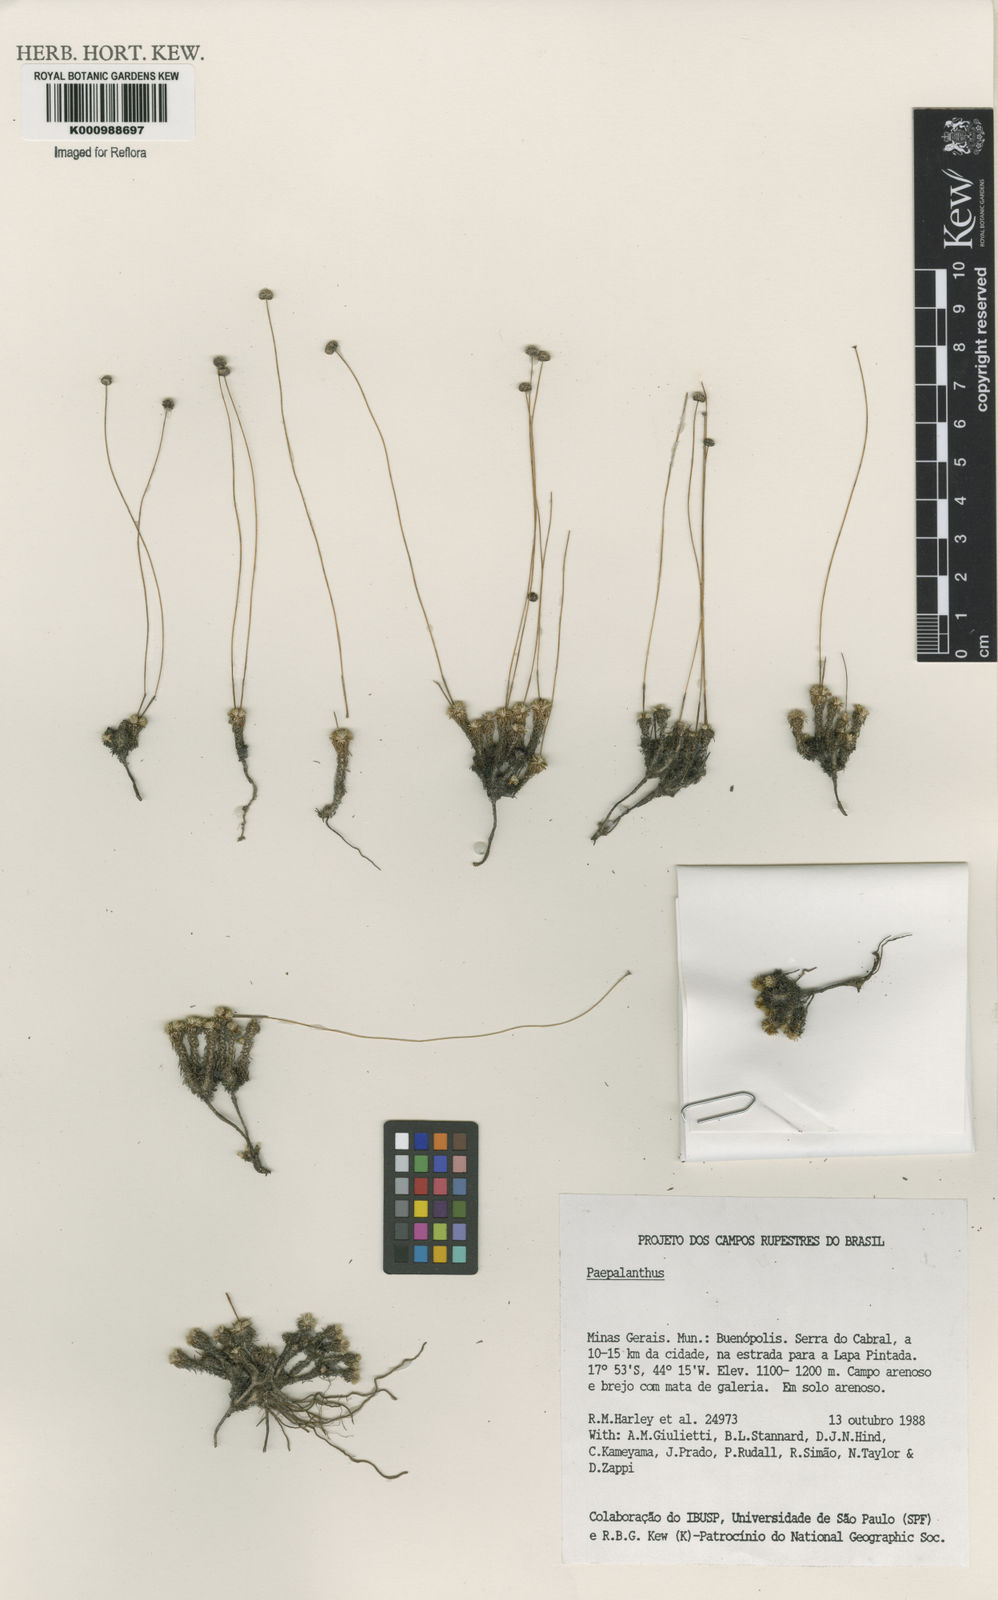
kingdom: Plantae
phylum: Tracheophyta
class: Liliopsida
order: Poales
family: Eriocaulaceae
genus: Paepalanthus
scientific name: Paepalanthus
